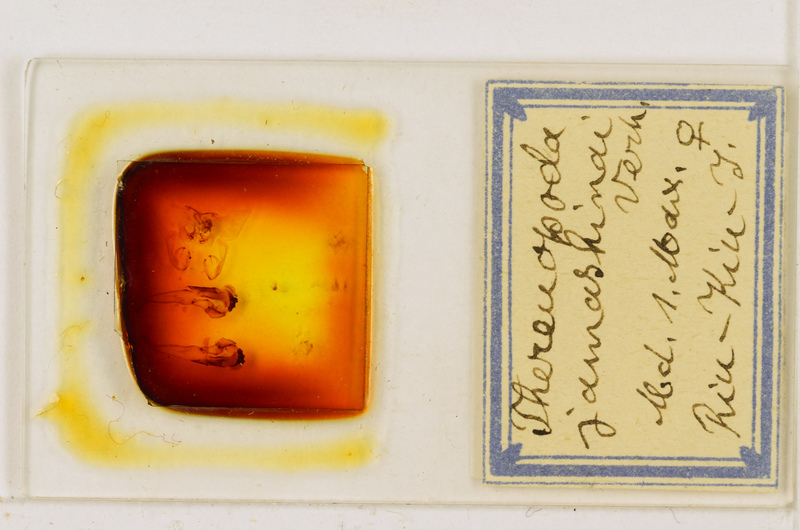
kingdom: Animalia
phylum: Arthropoda
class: Chilopoda
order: Scutigeromorpha
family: Scutigeridae
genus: Thereuopoda
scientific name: Thereuopoda clunifera
